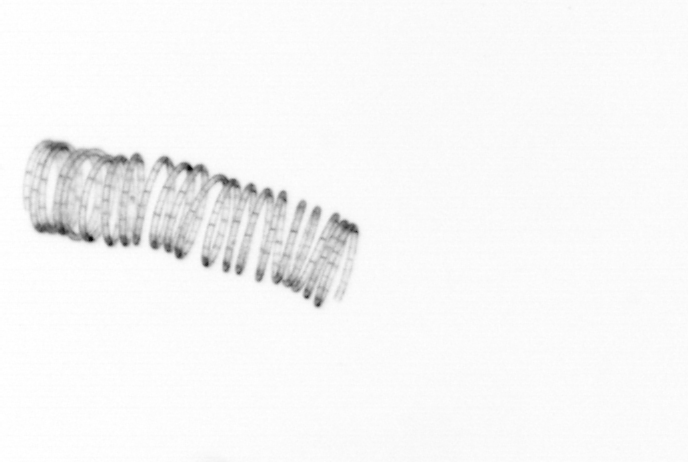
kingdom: Chromista
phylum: Ochrophyta
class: Bacillariophyceae
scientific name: Bacillariophyceae
